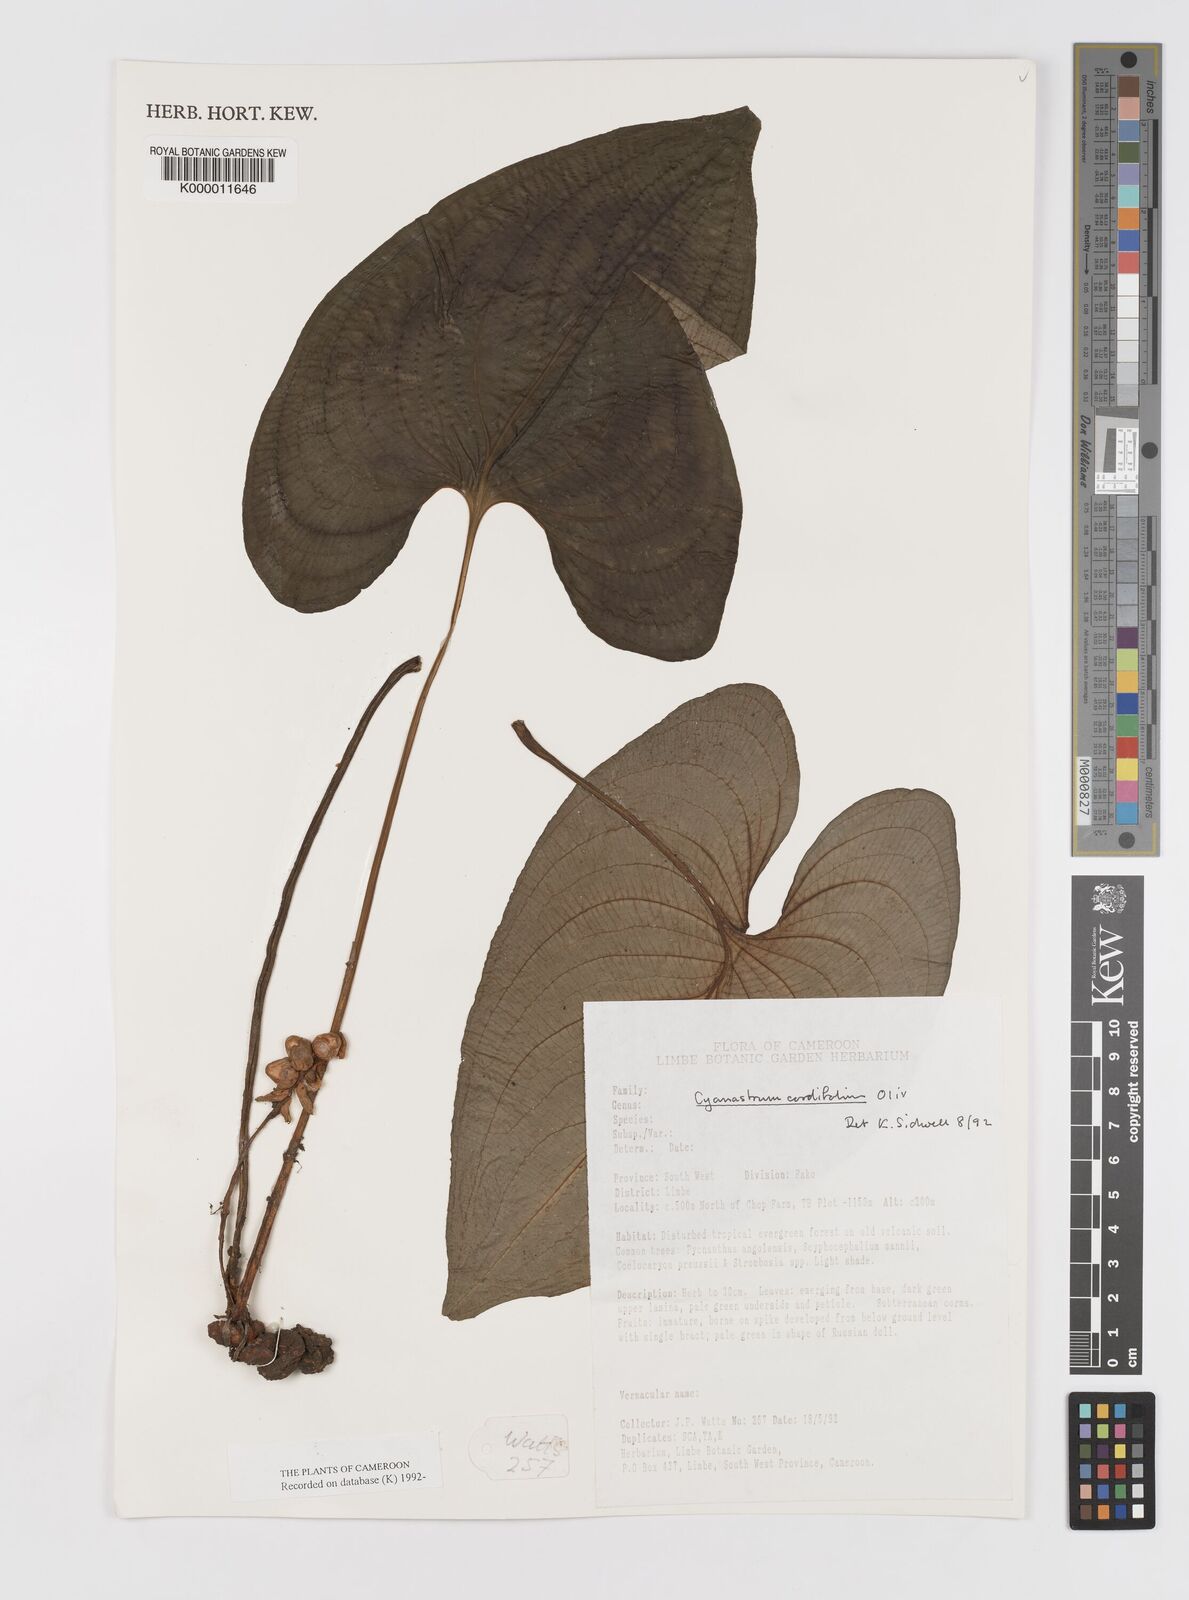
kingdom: Plantae
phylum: Tracheophyta
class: Liliopsida
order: Asparagales
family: Tecophilaeaceae
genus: Cyanastrum
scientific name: Cyanastrum cordifolium
